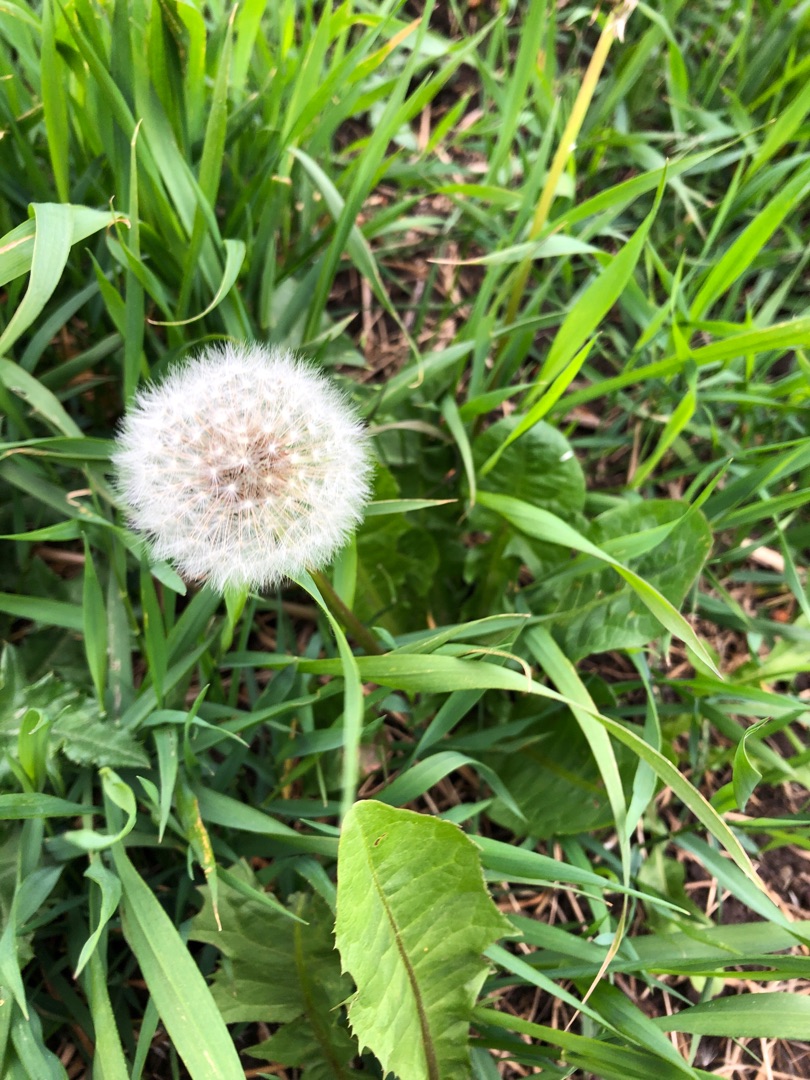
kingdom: Plantae
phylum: Tracheophyta
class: Magnoliopsida
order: Asterales
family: Asteraceae
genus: Taraxacum
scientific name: Taraxacum
